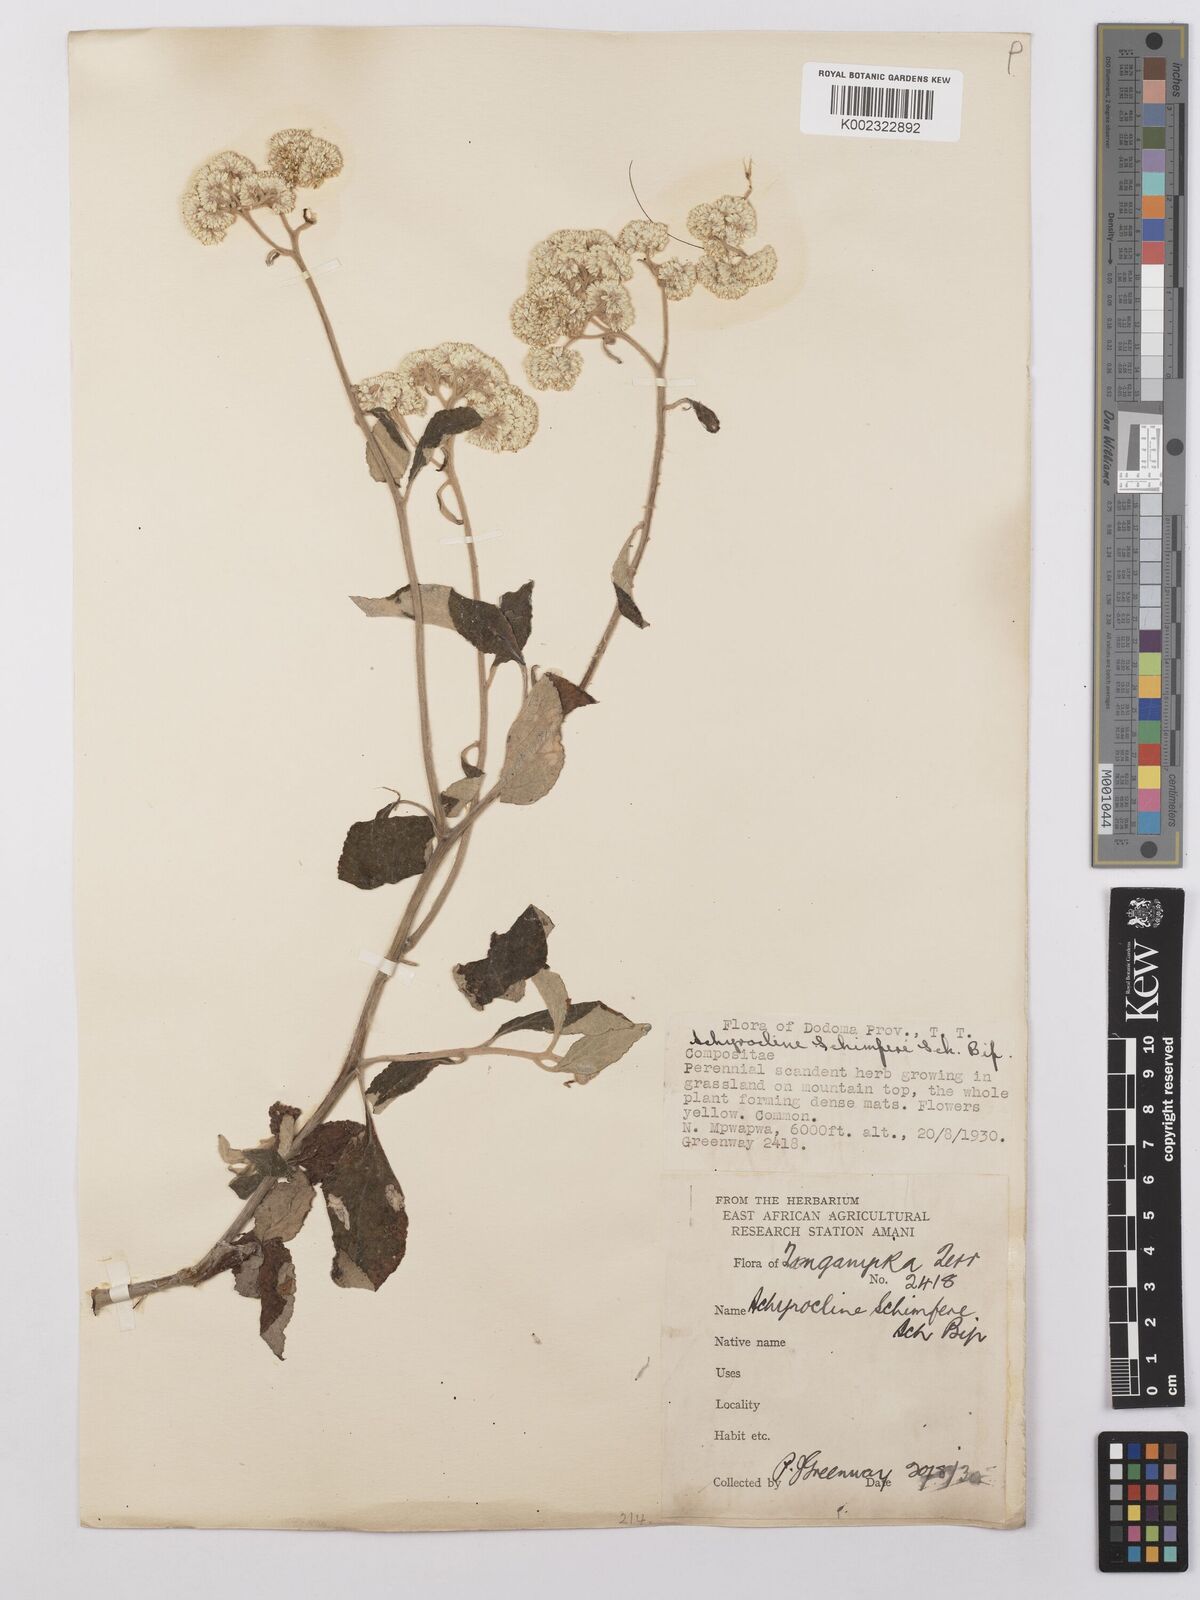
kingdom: Plantae
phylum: Tracheophyta
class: Magnoliopsida
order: Asterales
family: Asteraceae
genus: Helichrysum
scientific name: Helichrysum schimperi
